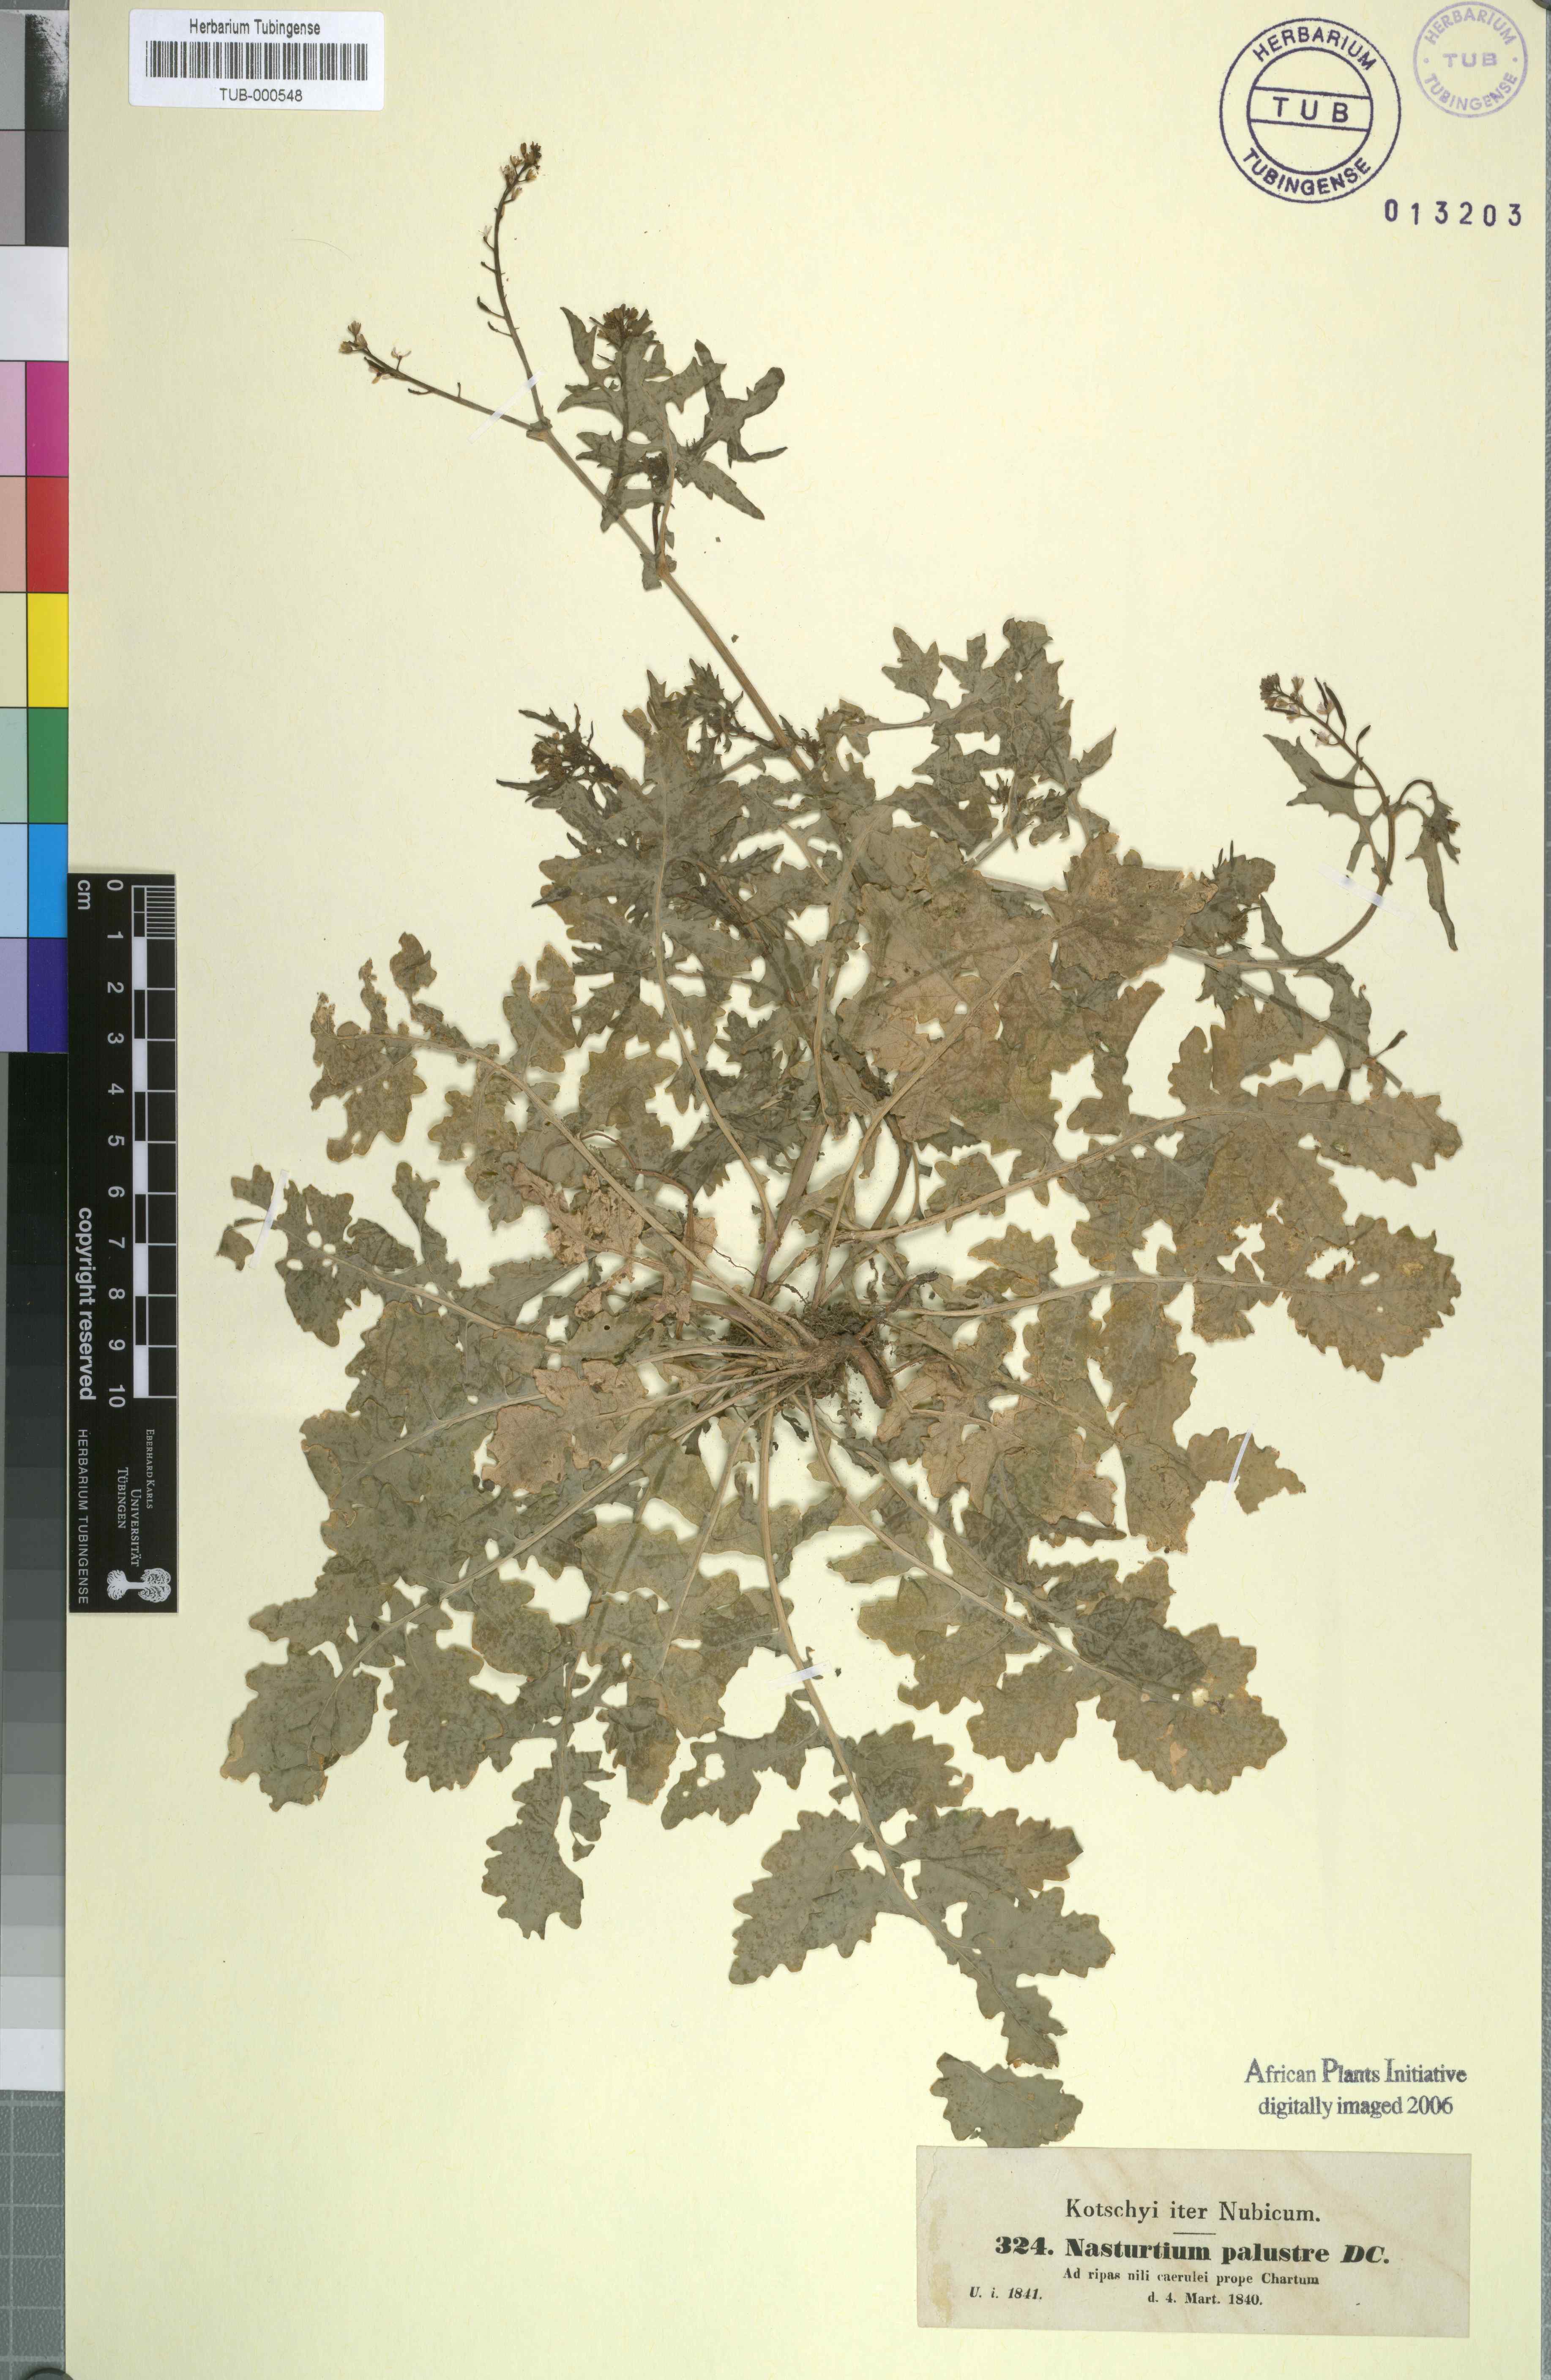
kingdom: Plantae
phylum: Tracheophyta
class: Magnoliopsida
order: Brassicales
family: Brassicaceae
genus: Rorippa
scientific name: Rorippa islandica
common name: Marsh cress
